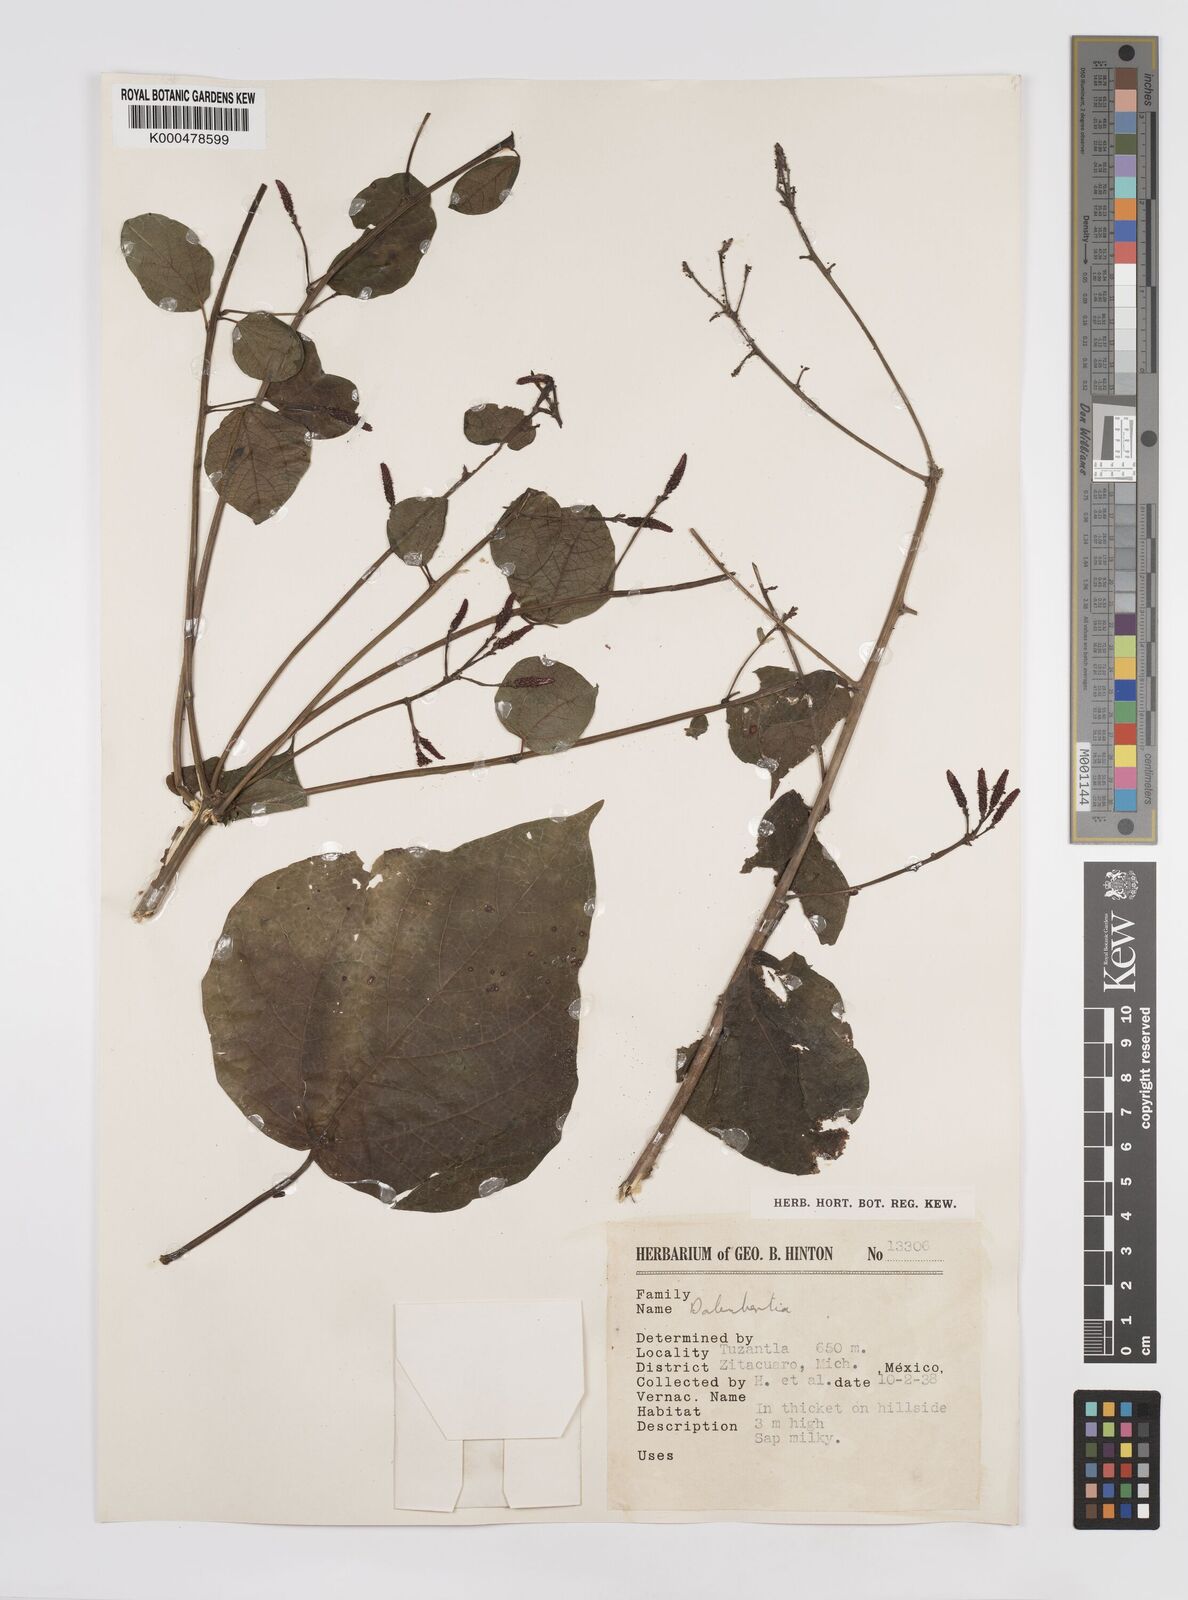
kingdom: Plantae
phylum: Tracheophyta
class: Magnoliopsida
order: Malpighiales
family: Euphorbiaceae
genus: Dalembertia
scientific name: Dalembertia
